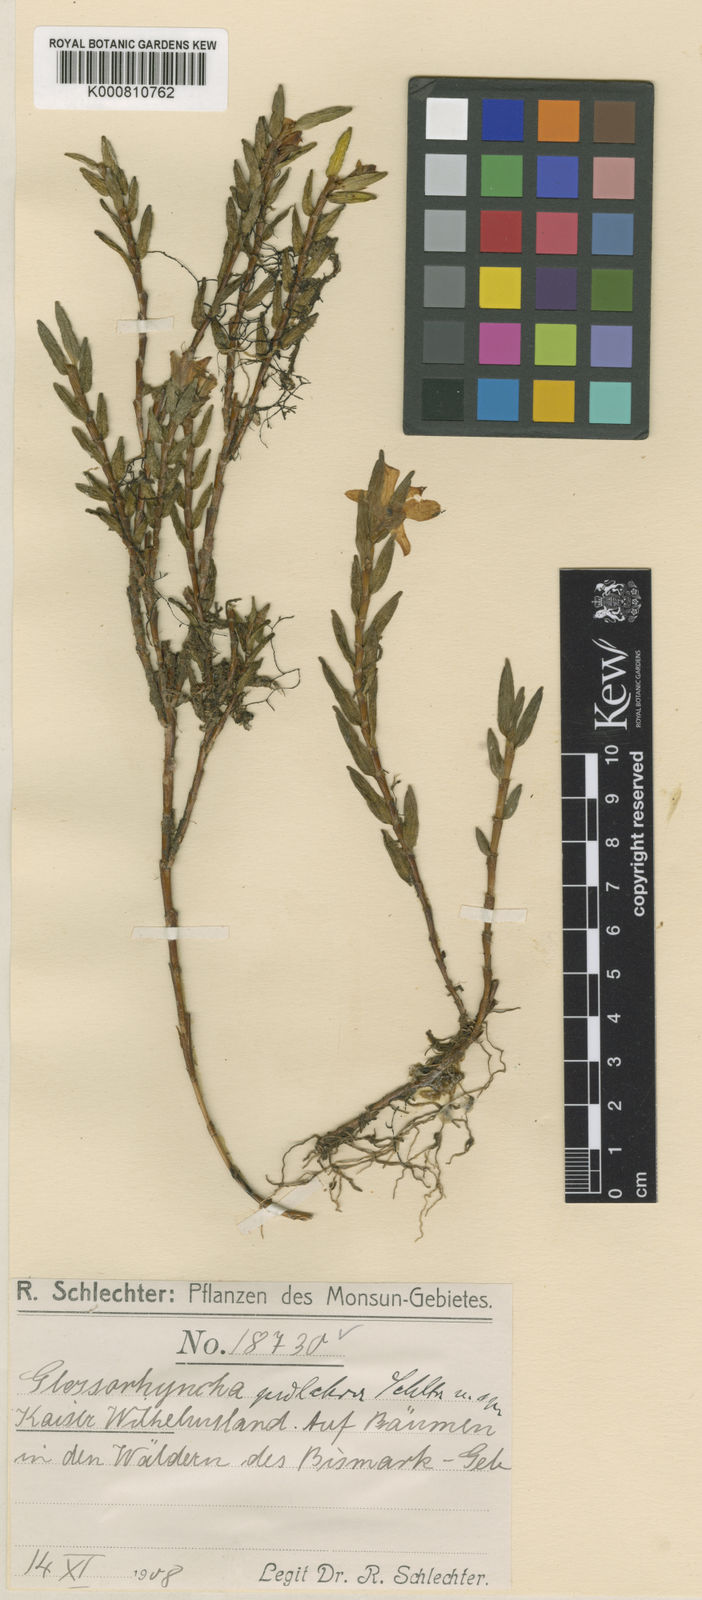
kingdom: Plantae
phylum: Tracheophyta
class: Liliopsida
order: Asparagales
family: Orchidaceae
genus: Glomera
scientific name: Glomera hamadryas
